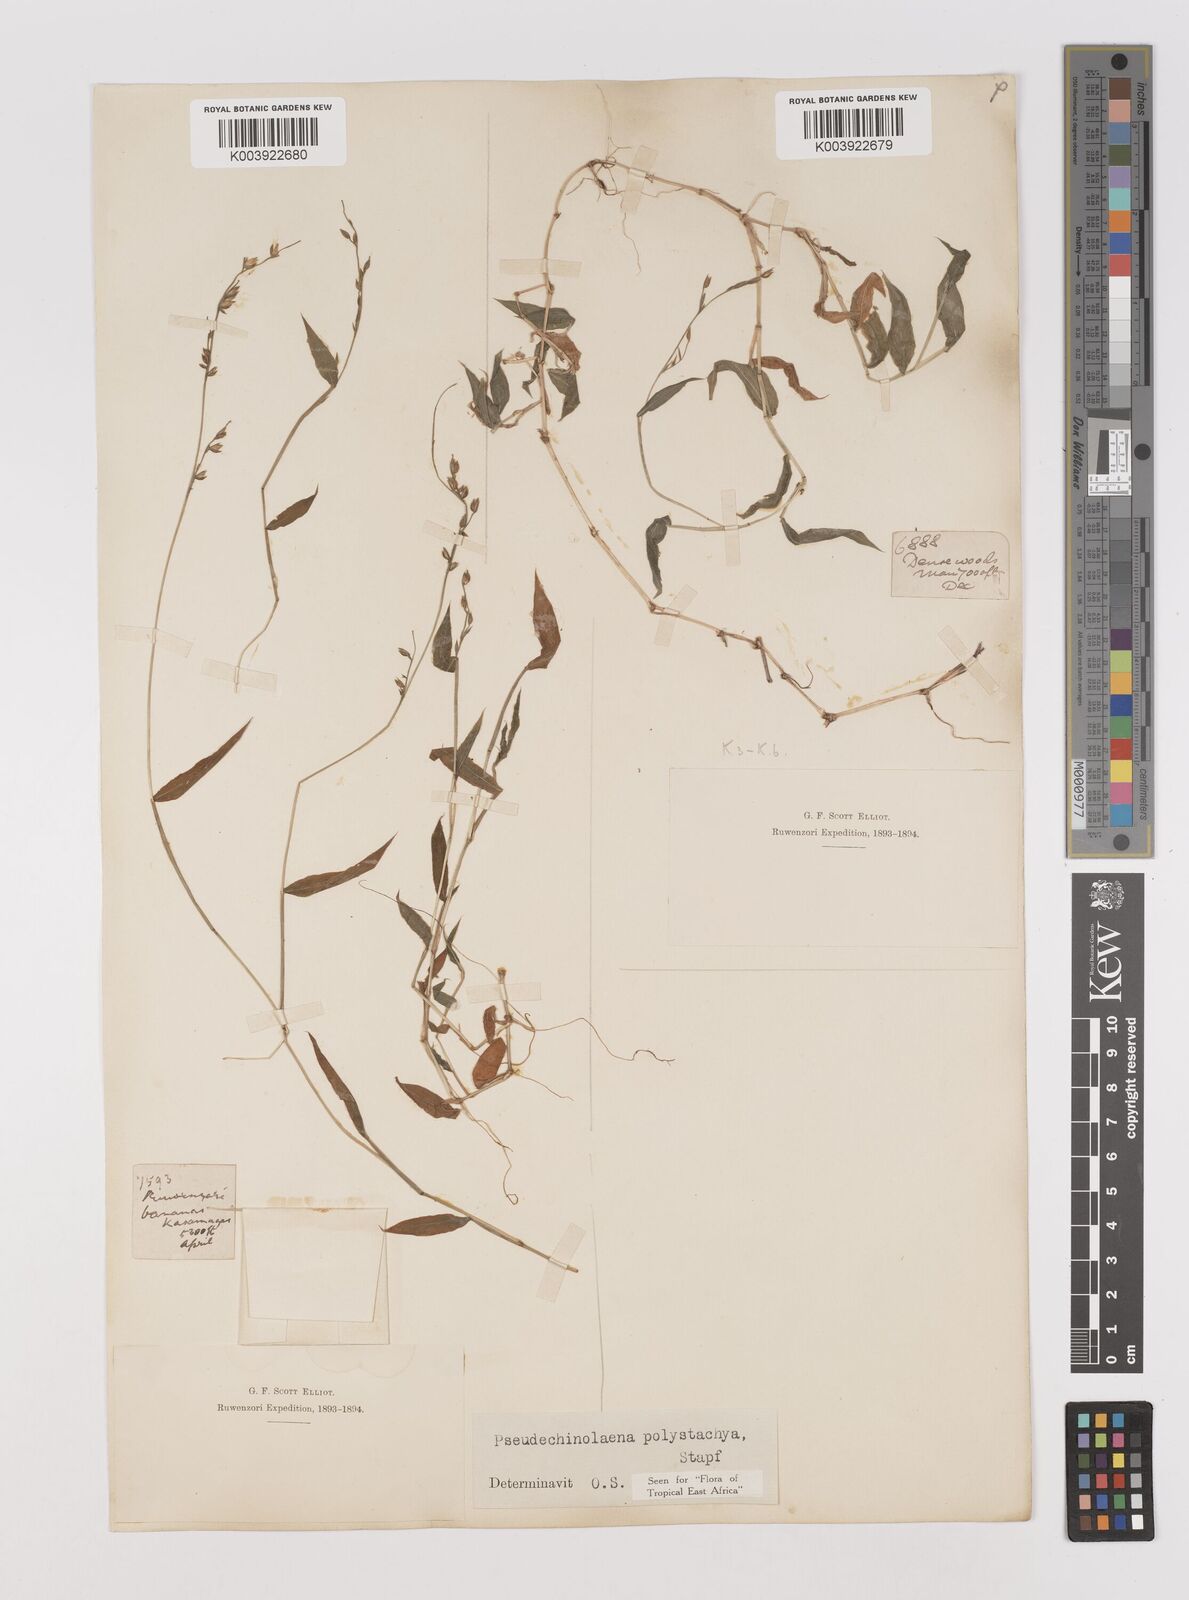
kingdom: Plantae
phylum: Tracheophyta
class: Liliopsida
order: Poales
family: Poaceae
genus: Pseudechinolaena
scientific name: Pseudechinolaena polystachya
